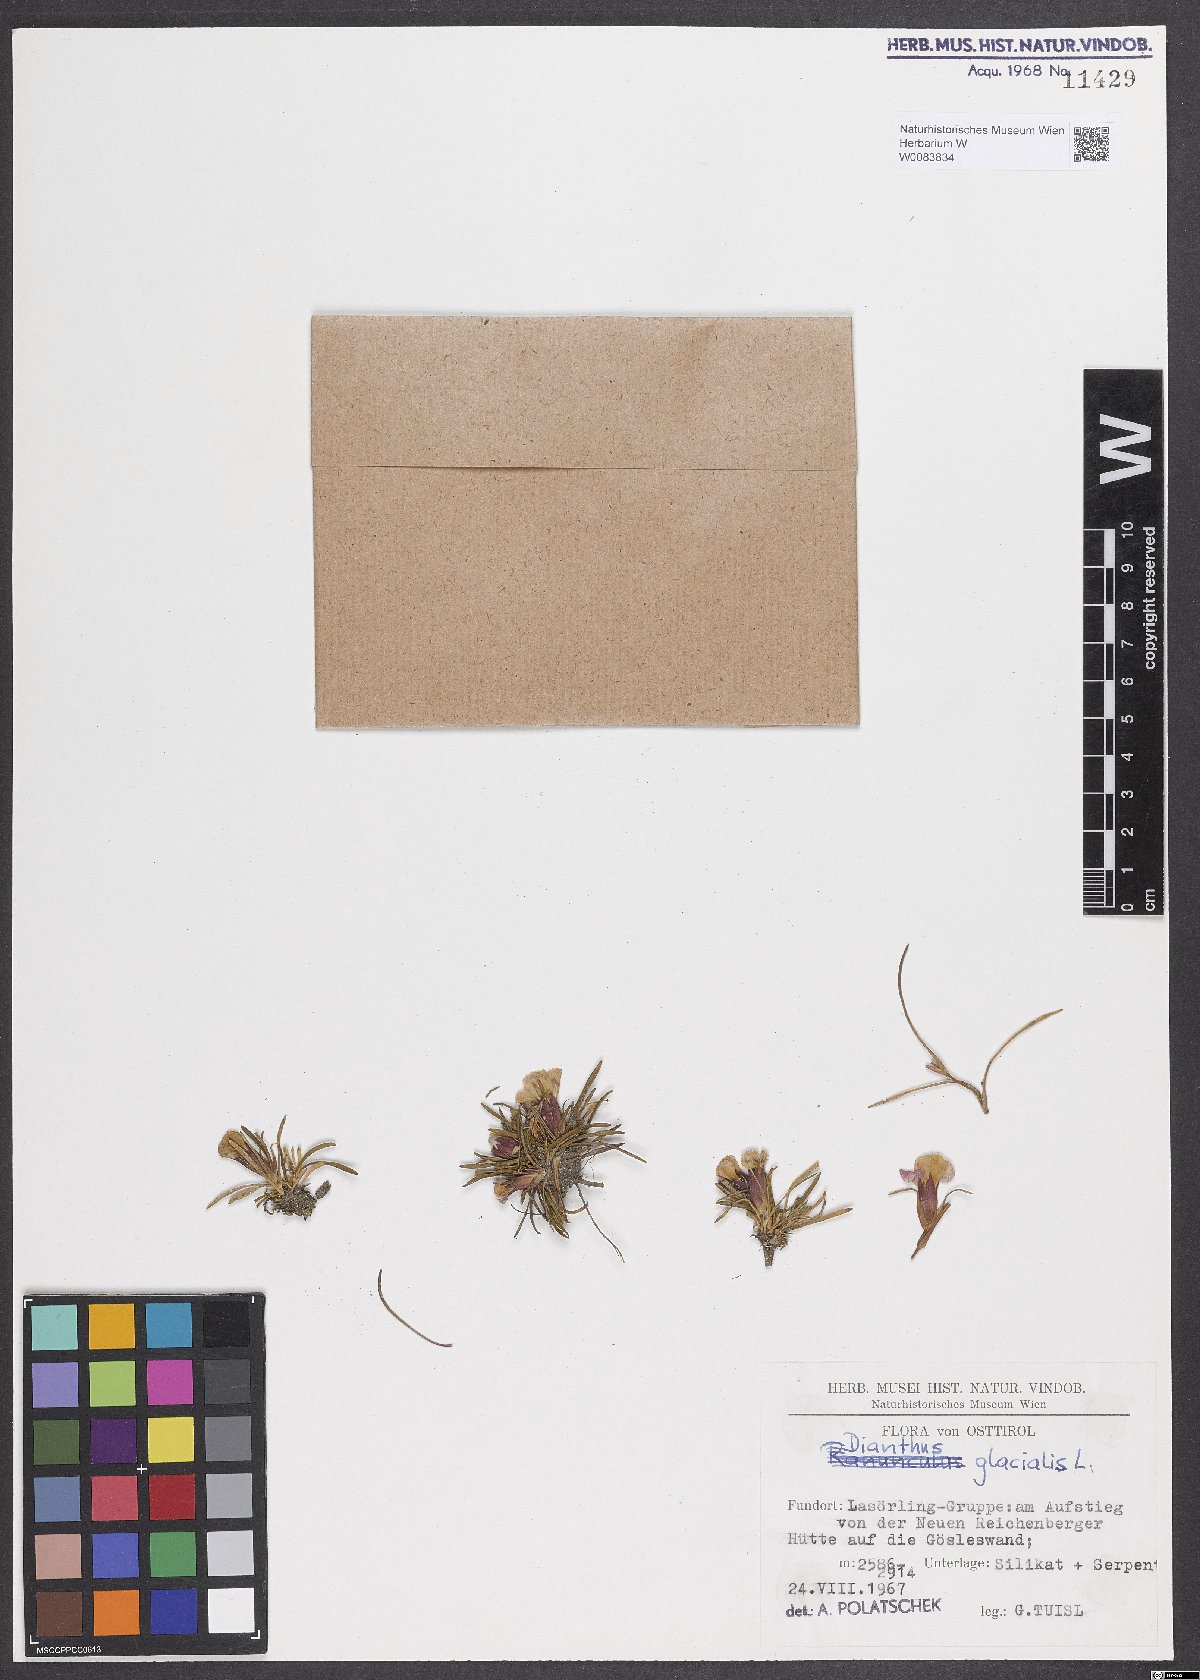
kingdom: Plantae
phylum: Tracheophyta
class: Magnoliopsida
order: Caryophyllales
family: Caryophyllaceae
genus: Dianthus
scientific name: Dianthus glacialis
